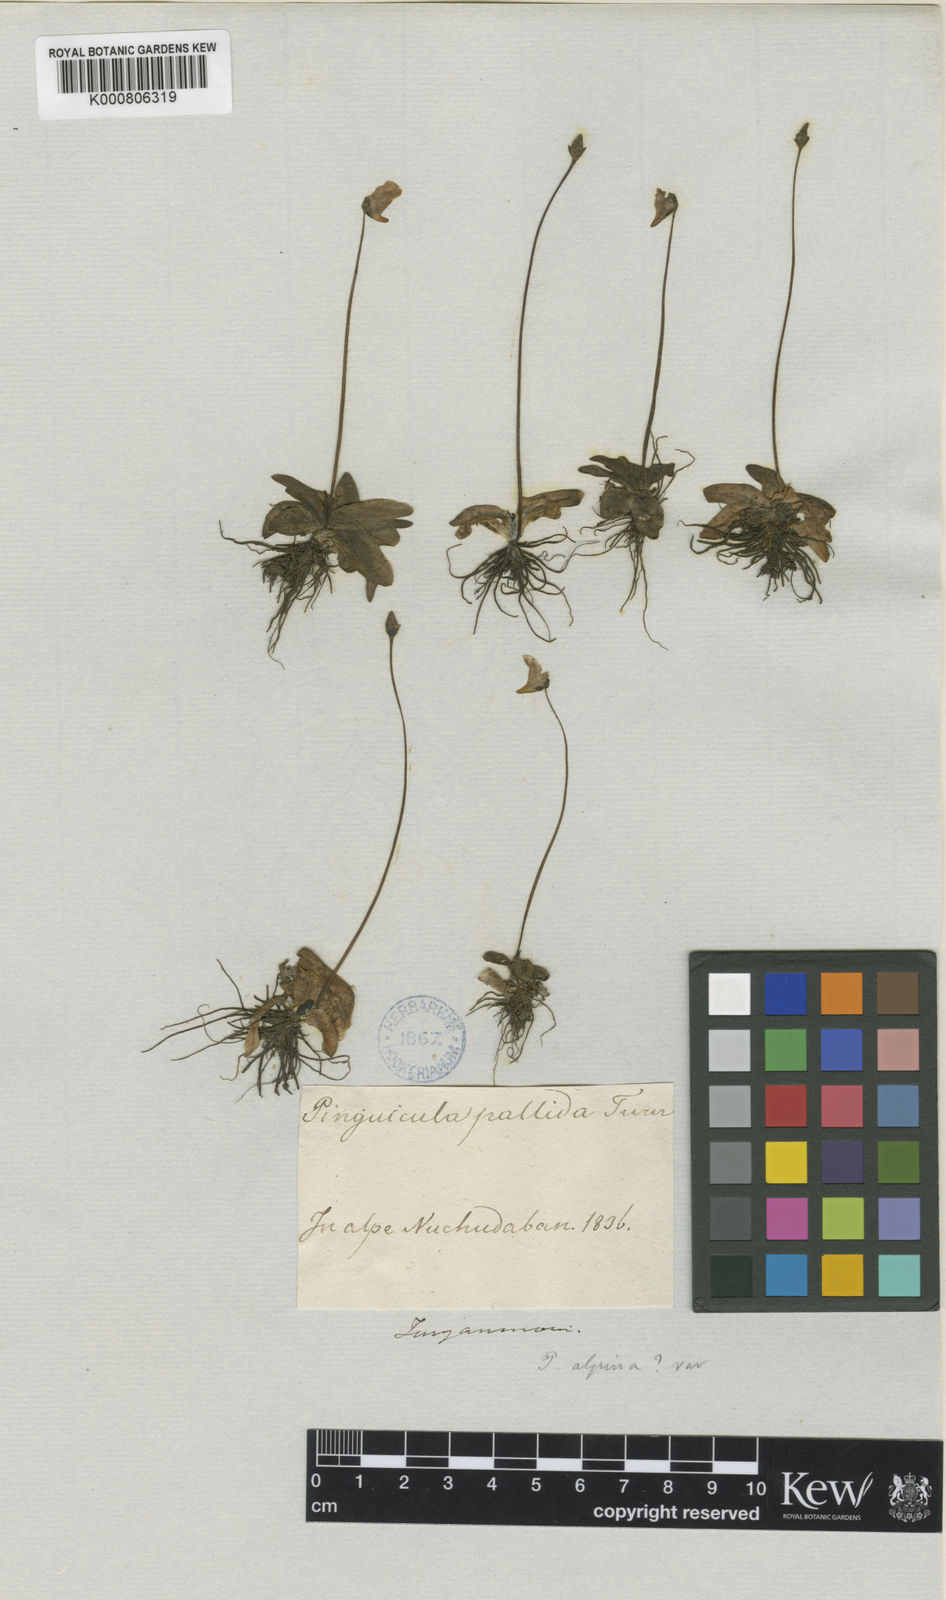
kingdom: Plantae
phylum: Tracheophyta
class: Magnoliopsida
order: Lamiales
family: Lentibulariaceae
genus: Pinguicula
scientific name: Pinguicula alpina
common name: Alpine butterwort
